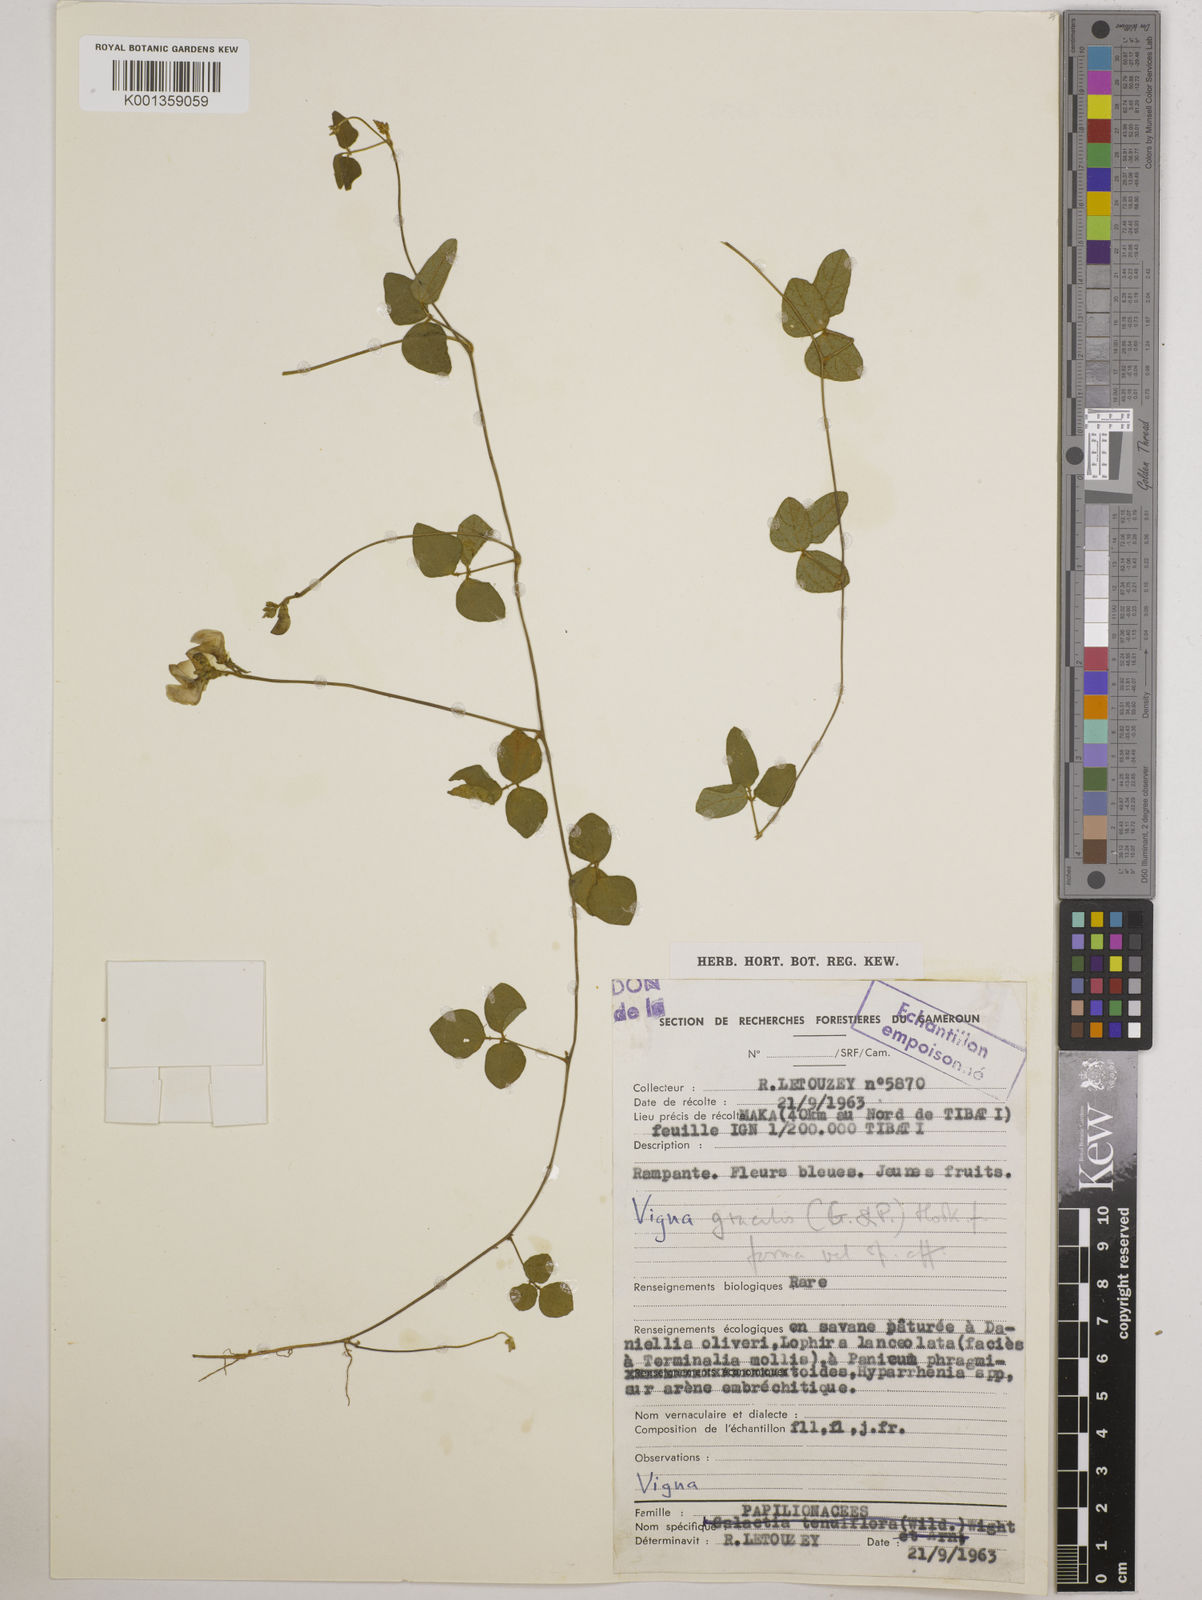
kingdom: Plantae
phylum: Tracheophyta
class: Magnoliopsida
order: Fabales
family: Fabaceae
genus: Vigna
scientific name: Vigna gracilis
